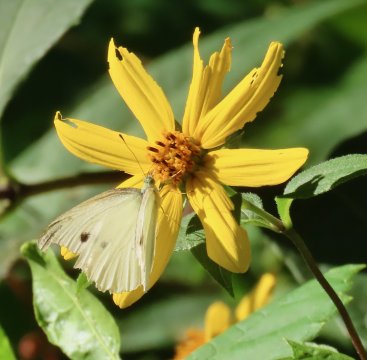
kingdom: Animalia
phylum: Arthropoda
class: Insecta
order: Lepidoptera
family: Pieridae
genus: Pieris
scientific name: Pieris rapae
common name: Cabbage White
